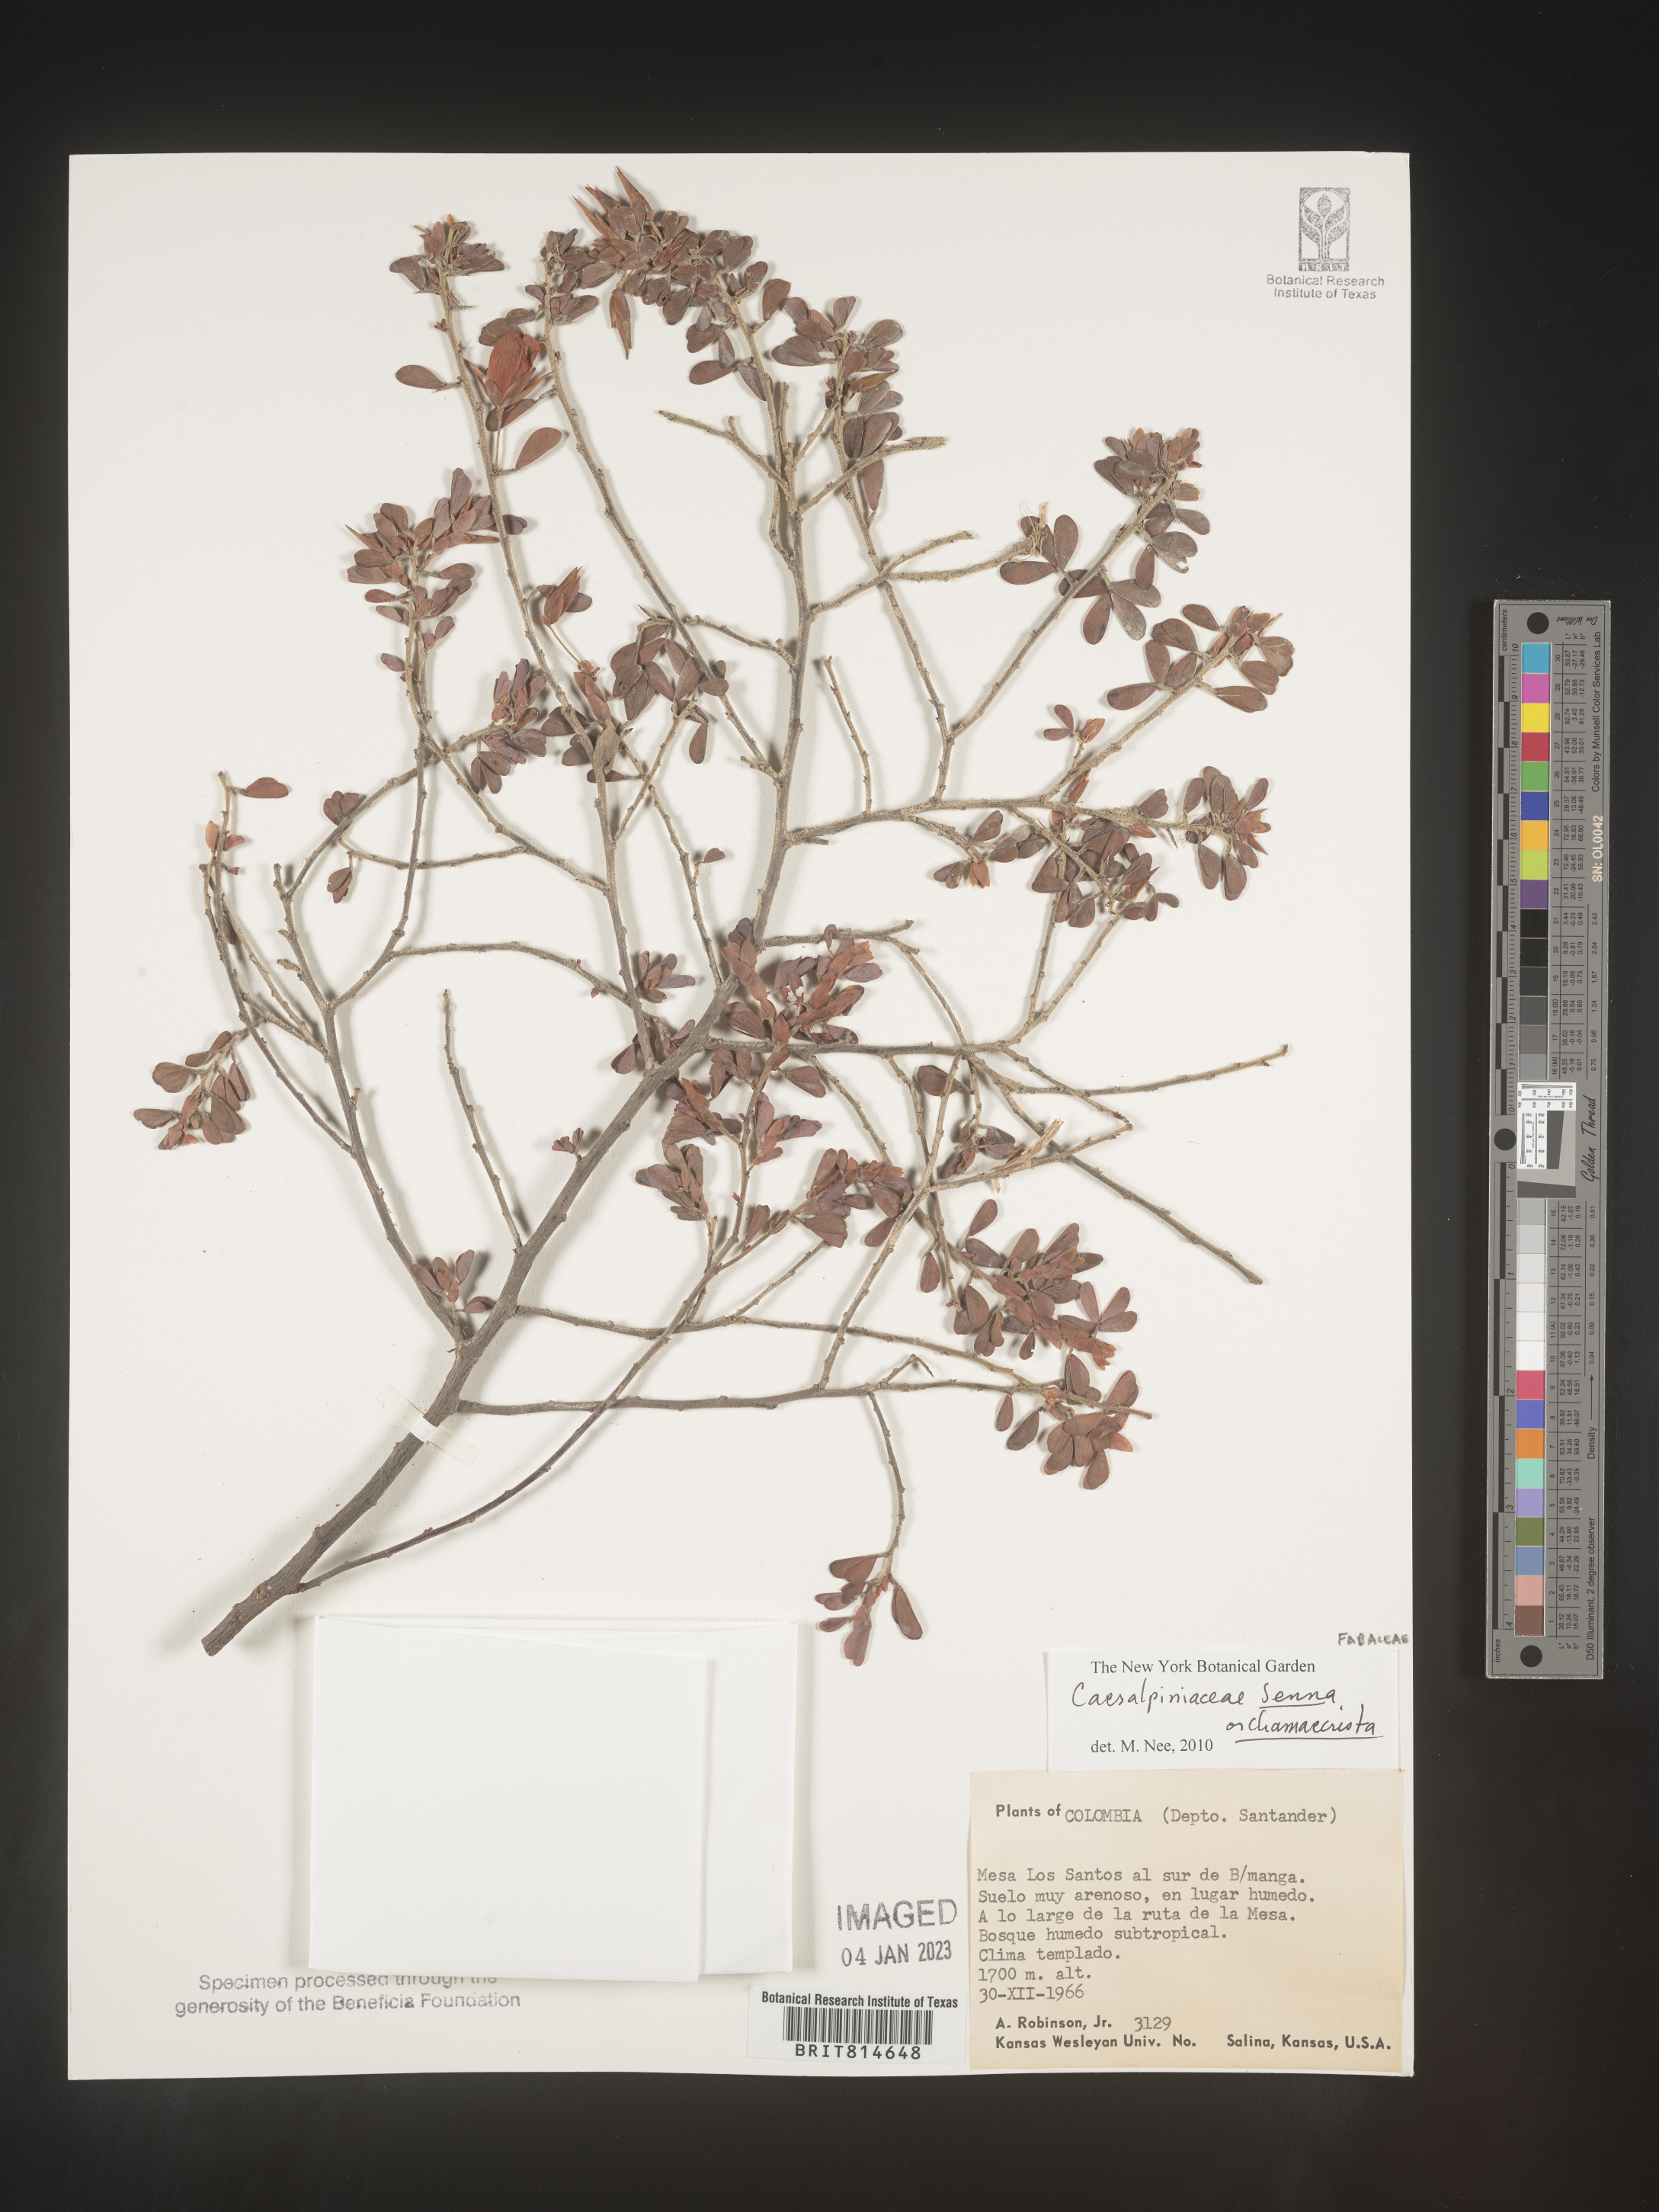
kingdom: Plantae
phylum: Tracheophyta
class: Magnoliopsida
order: Fabales
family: Fabaceae
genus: Caesalpinia
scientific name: Caesalpinia
